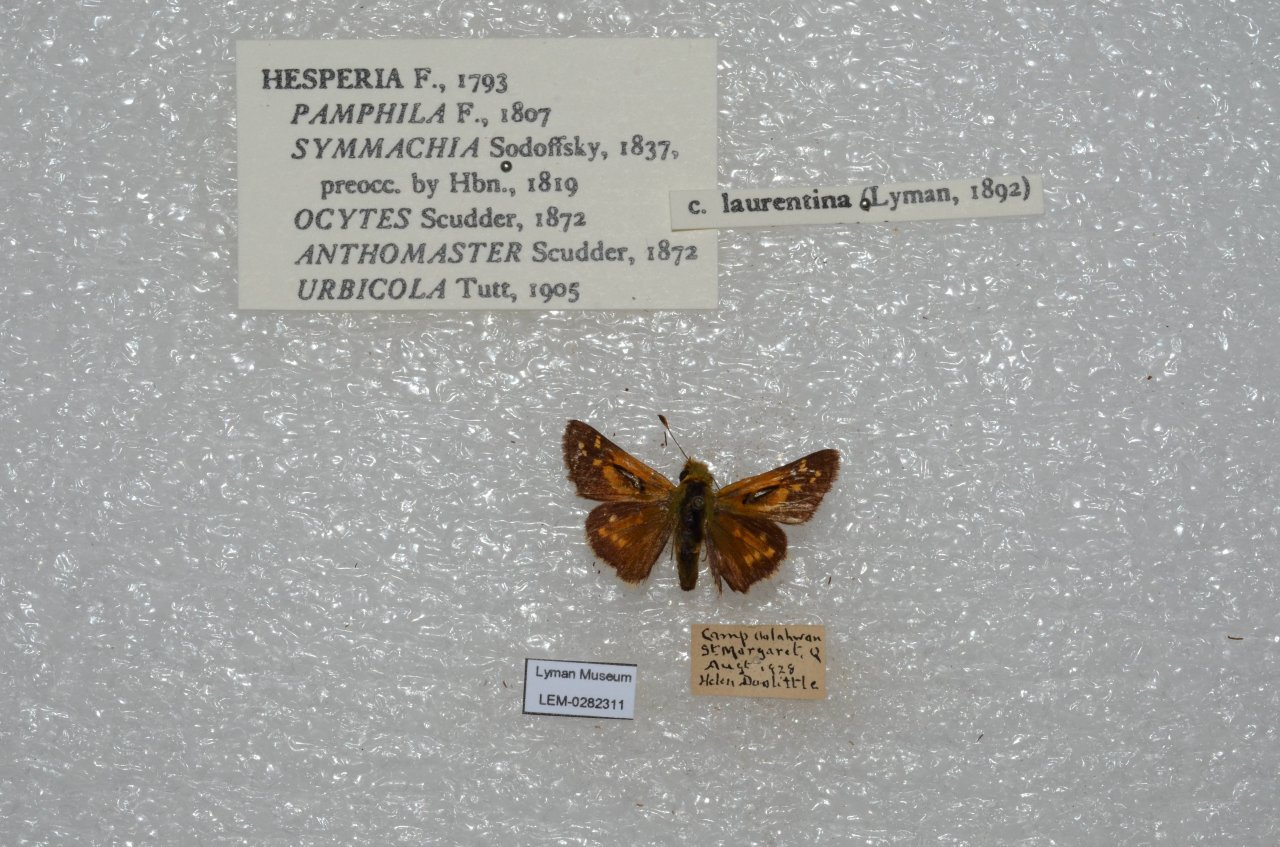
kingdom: Animalia
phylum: Arthropoda
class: Insecta
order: Lepidoptera
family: Hesperiidae
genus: Hesperia
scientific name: Hesperia comma
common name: Common Branded Skipper
